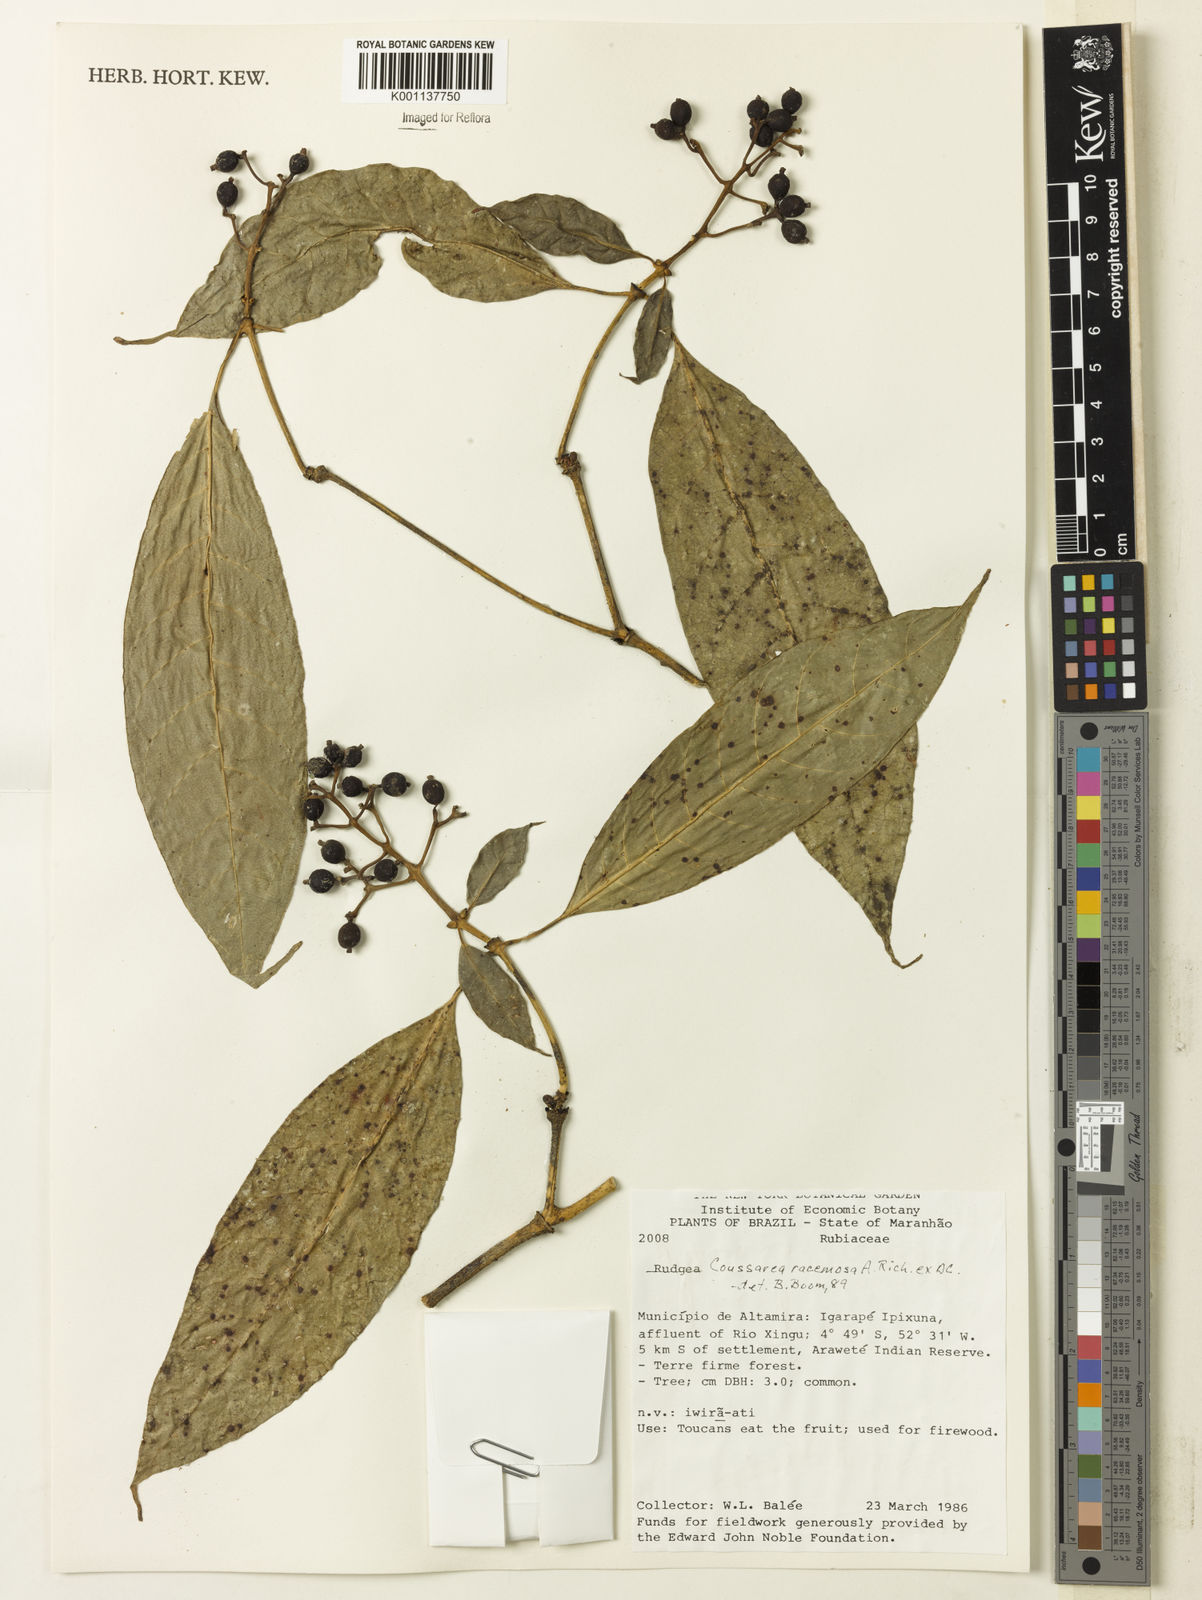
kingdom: Plantae
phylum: Tracheophyta
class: Magnoliopsida
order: Gentianales
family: Rubiaceae
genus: Coussarea
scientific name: Coussarea
